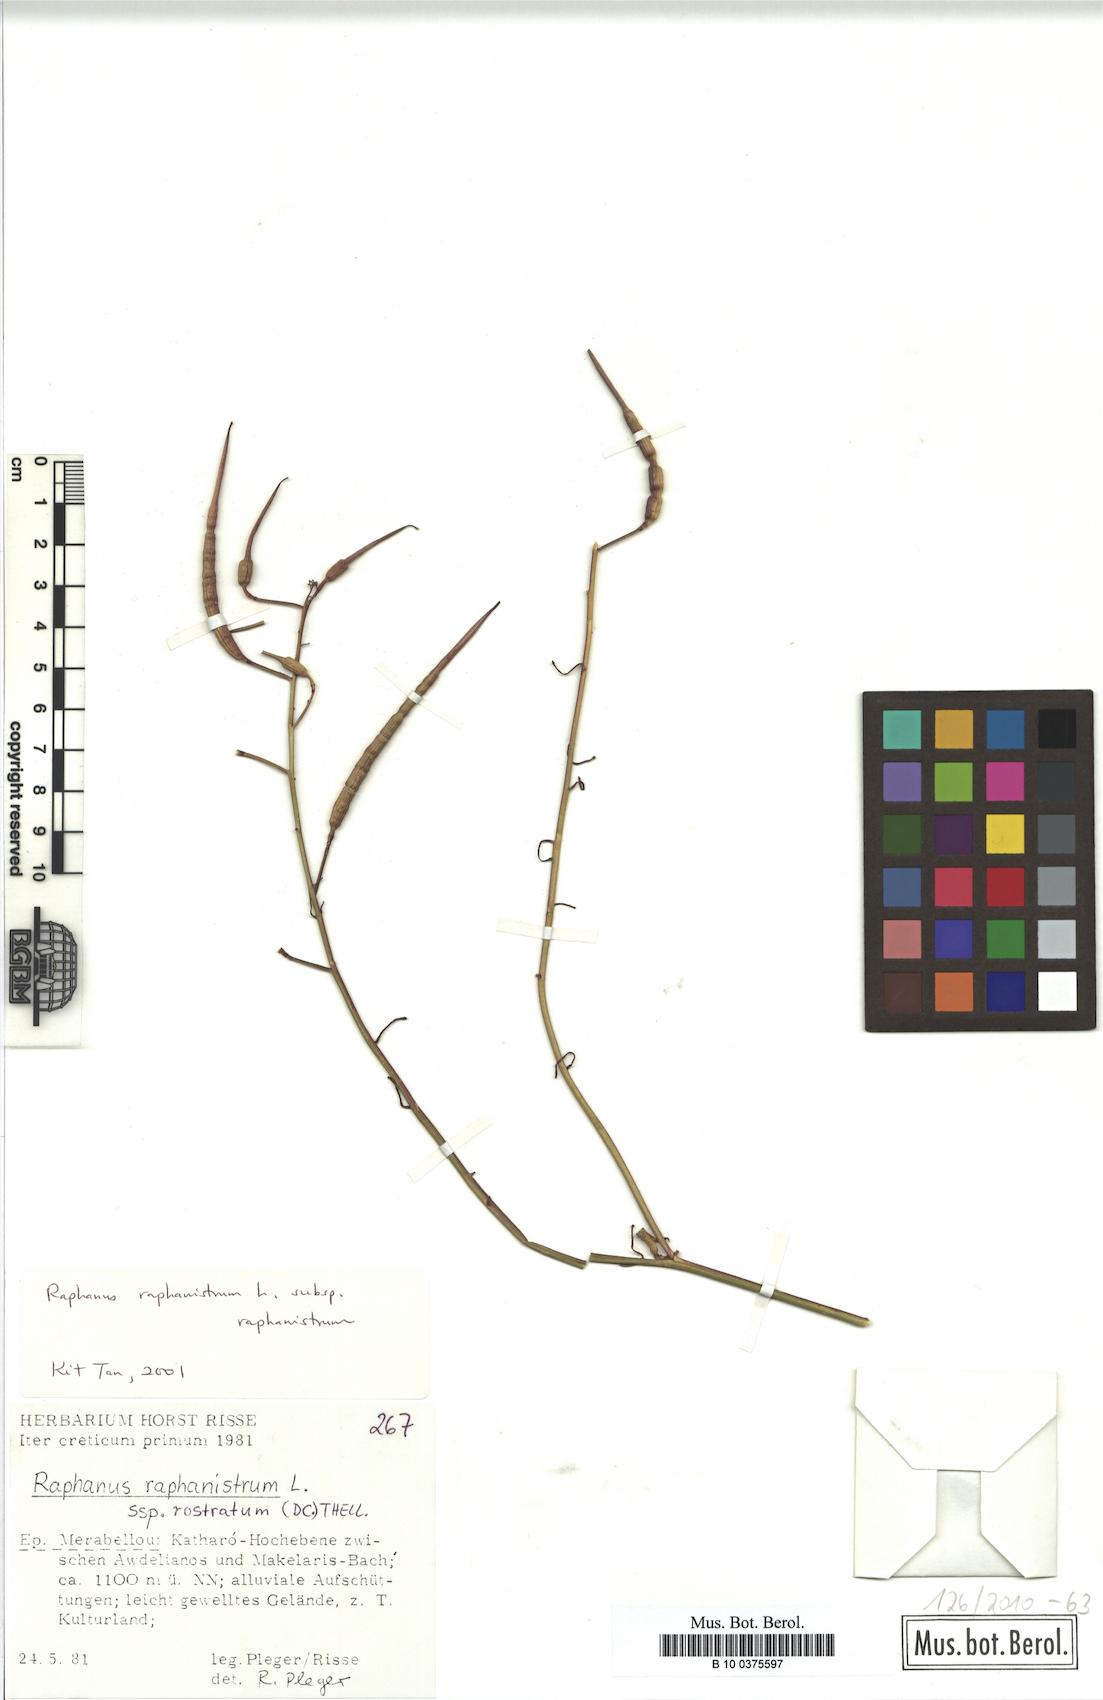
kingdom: Plantae
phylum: Tracheophyta
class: Magnoliopsida
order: Brassicales
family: Brassicaceae
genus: Raphanus
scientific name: Raphanus raphanistrum
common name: Wild radish
